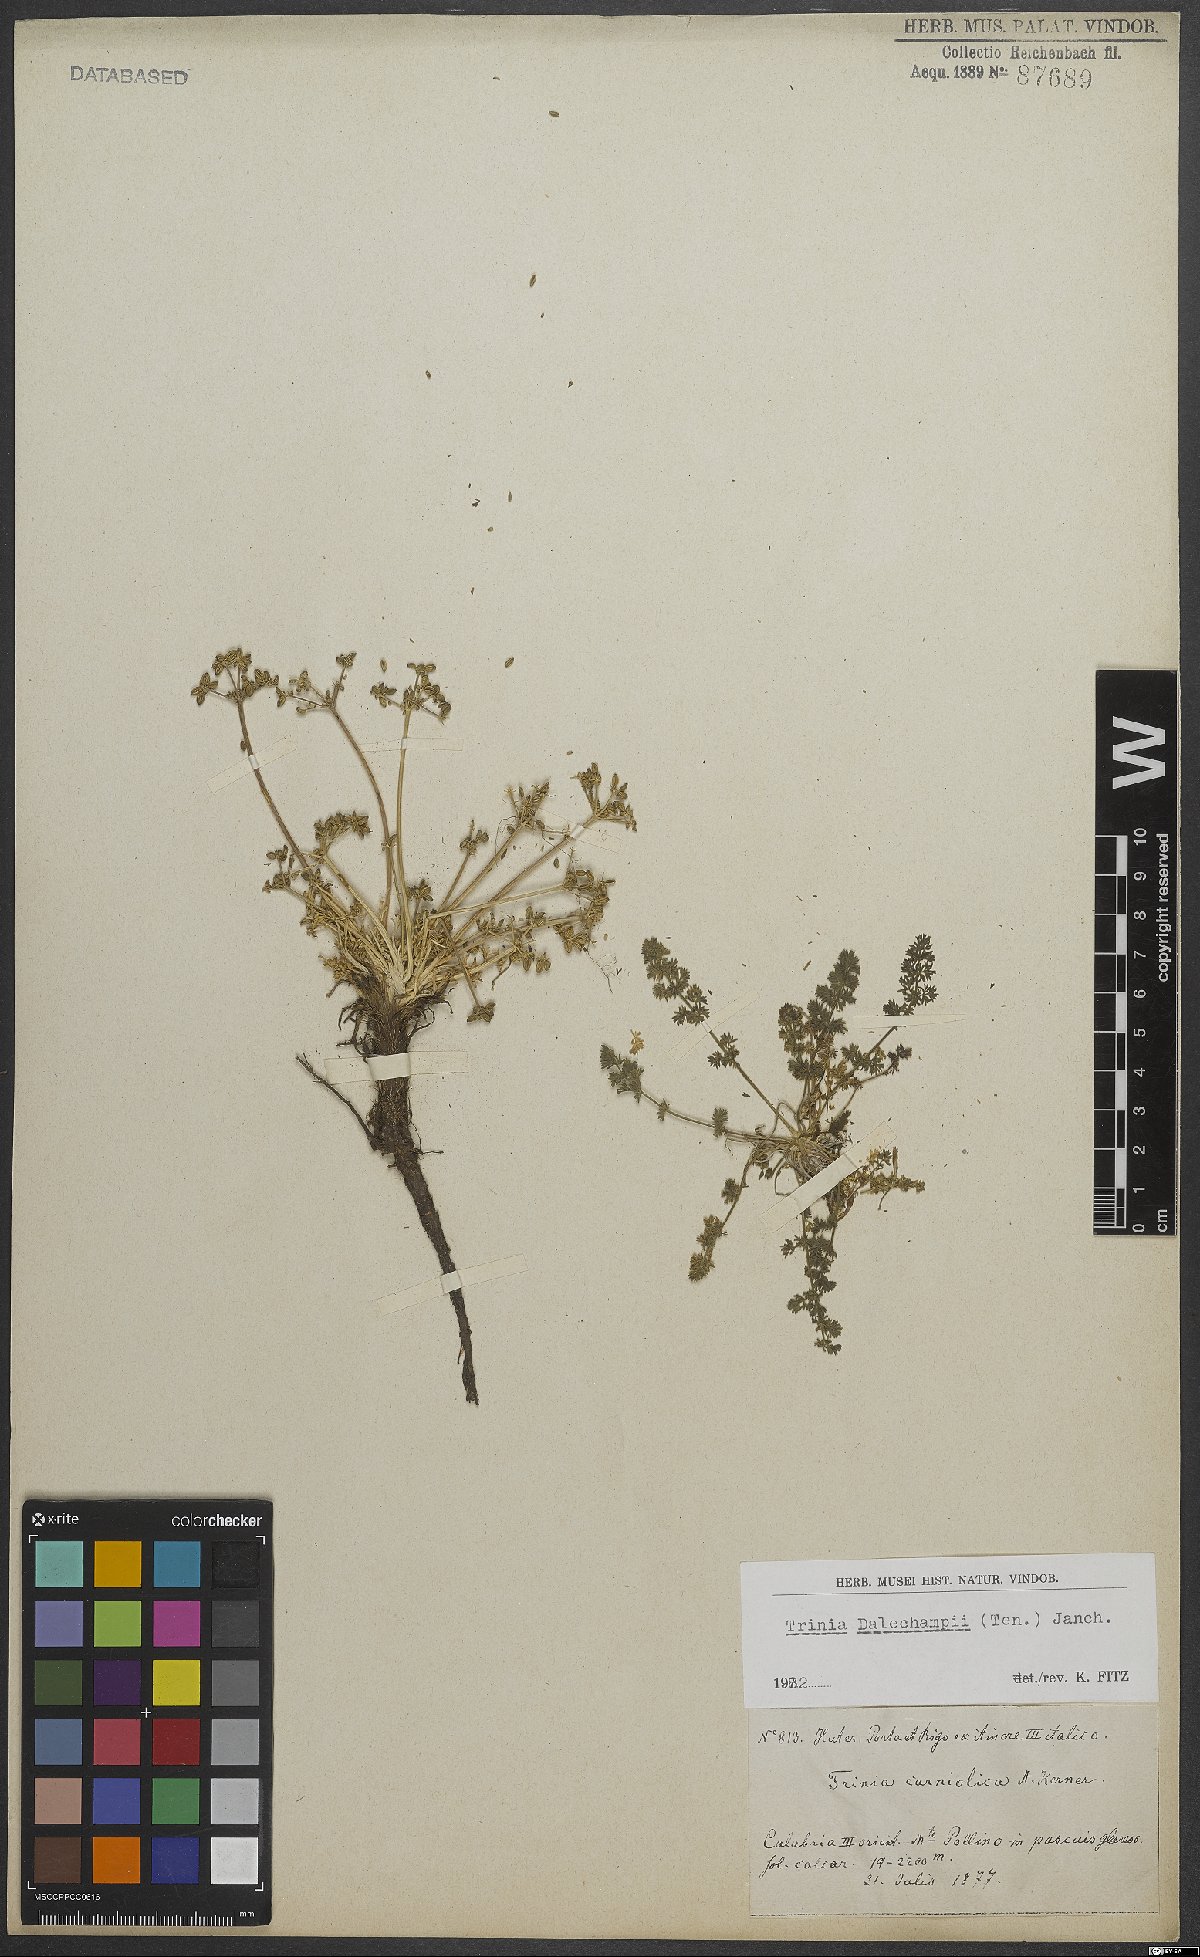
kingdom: Plantae
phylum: Tracheophyta
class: Magnoliopsida
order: Apiales
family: Apiaceae
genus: Trinia
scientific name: Trinia dalechampii
